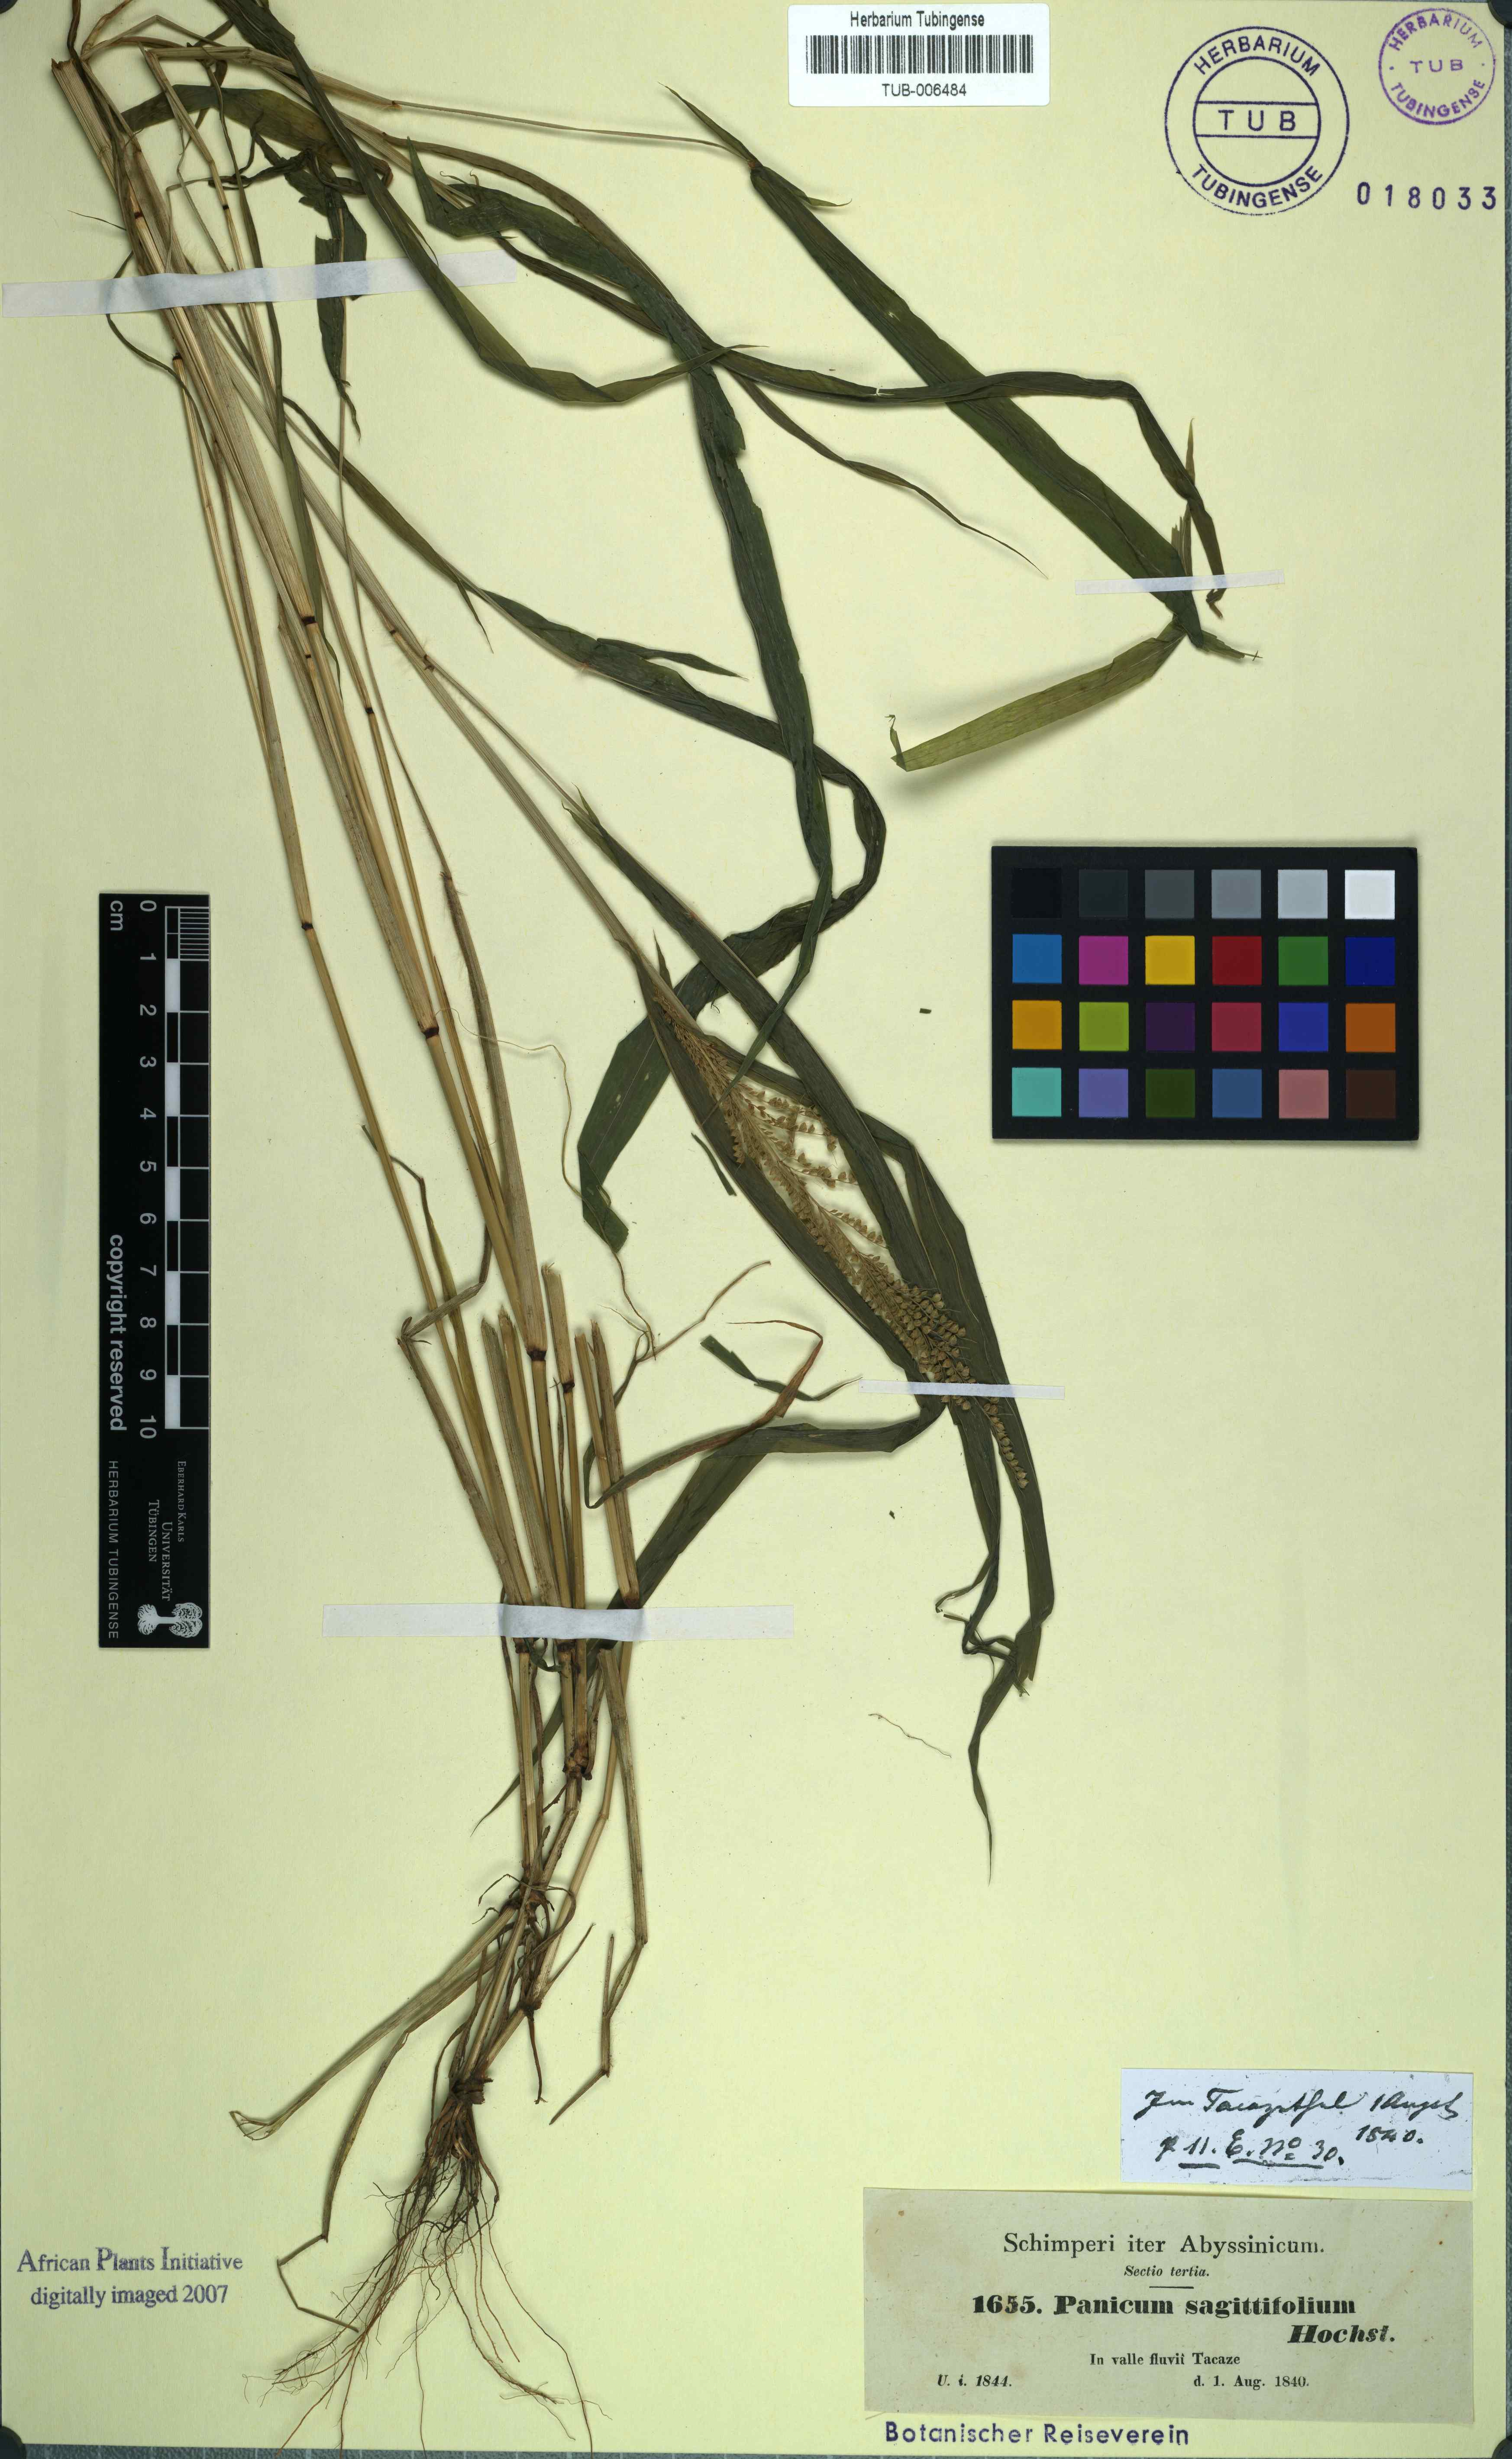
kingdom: Plantae
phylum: Tracheophyta
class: Liliopsida
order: Poales
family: Poaceae
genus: Setaria
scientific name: Setaria sagittifolia
